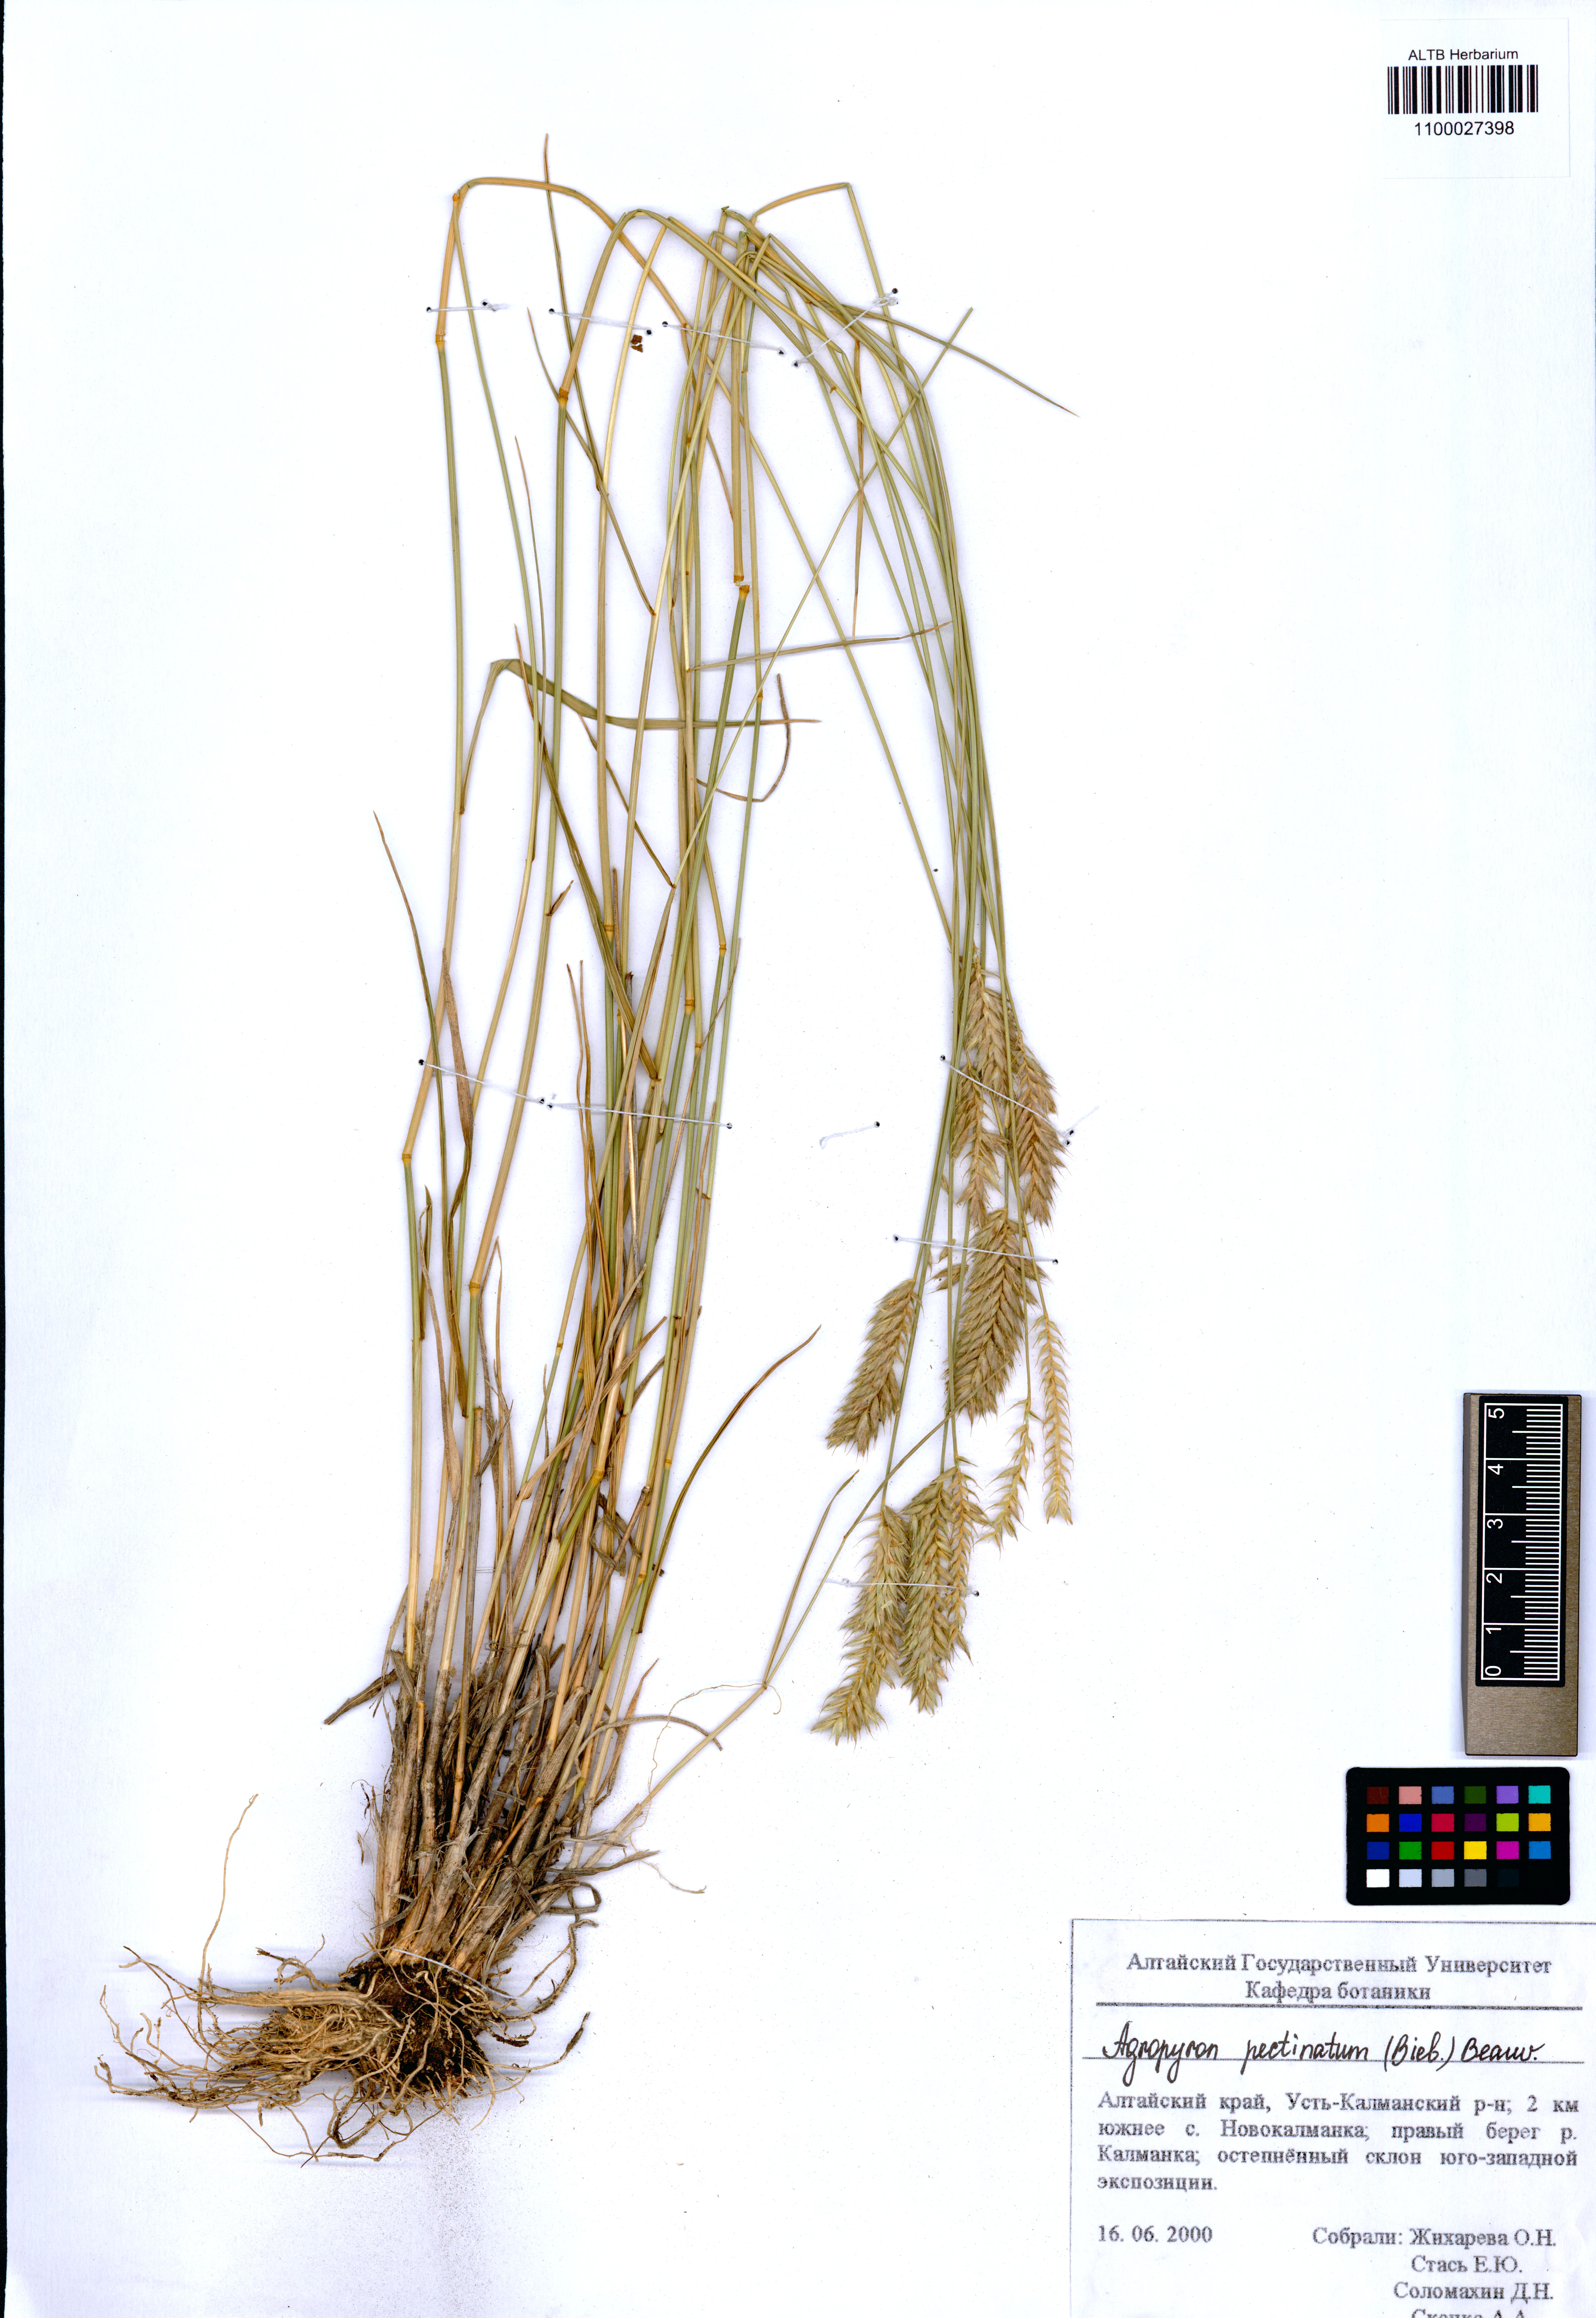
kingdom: Plantae
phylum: Tracheophyta
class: Liliopsida
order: Poales
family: Poaceae
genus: Agropyron
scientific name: Agropyron cristatum
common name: Crested wheatgrass
